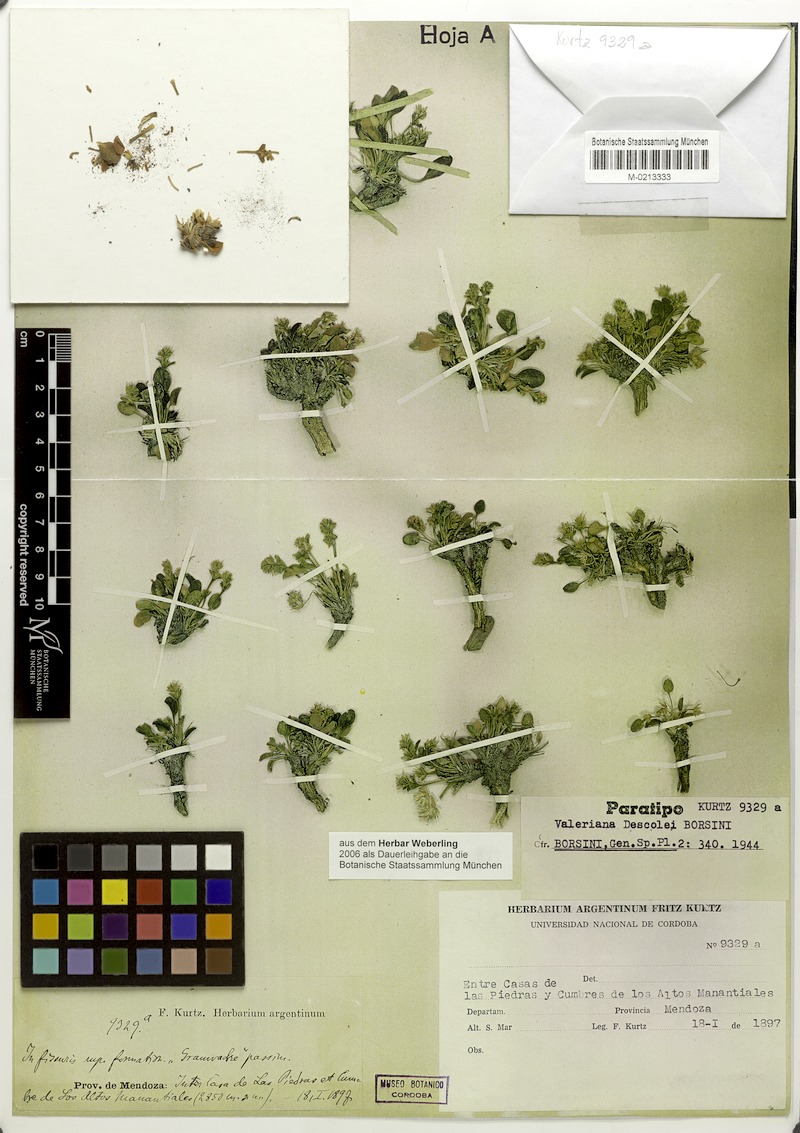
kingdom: Plantae
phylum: Tracheophyta
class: Magnoliopsida
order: Dipsacales
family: Caprifoliaceae
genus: Valeriana
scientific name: Valeriana descolei
